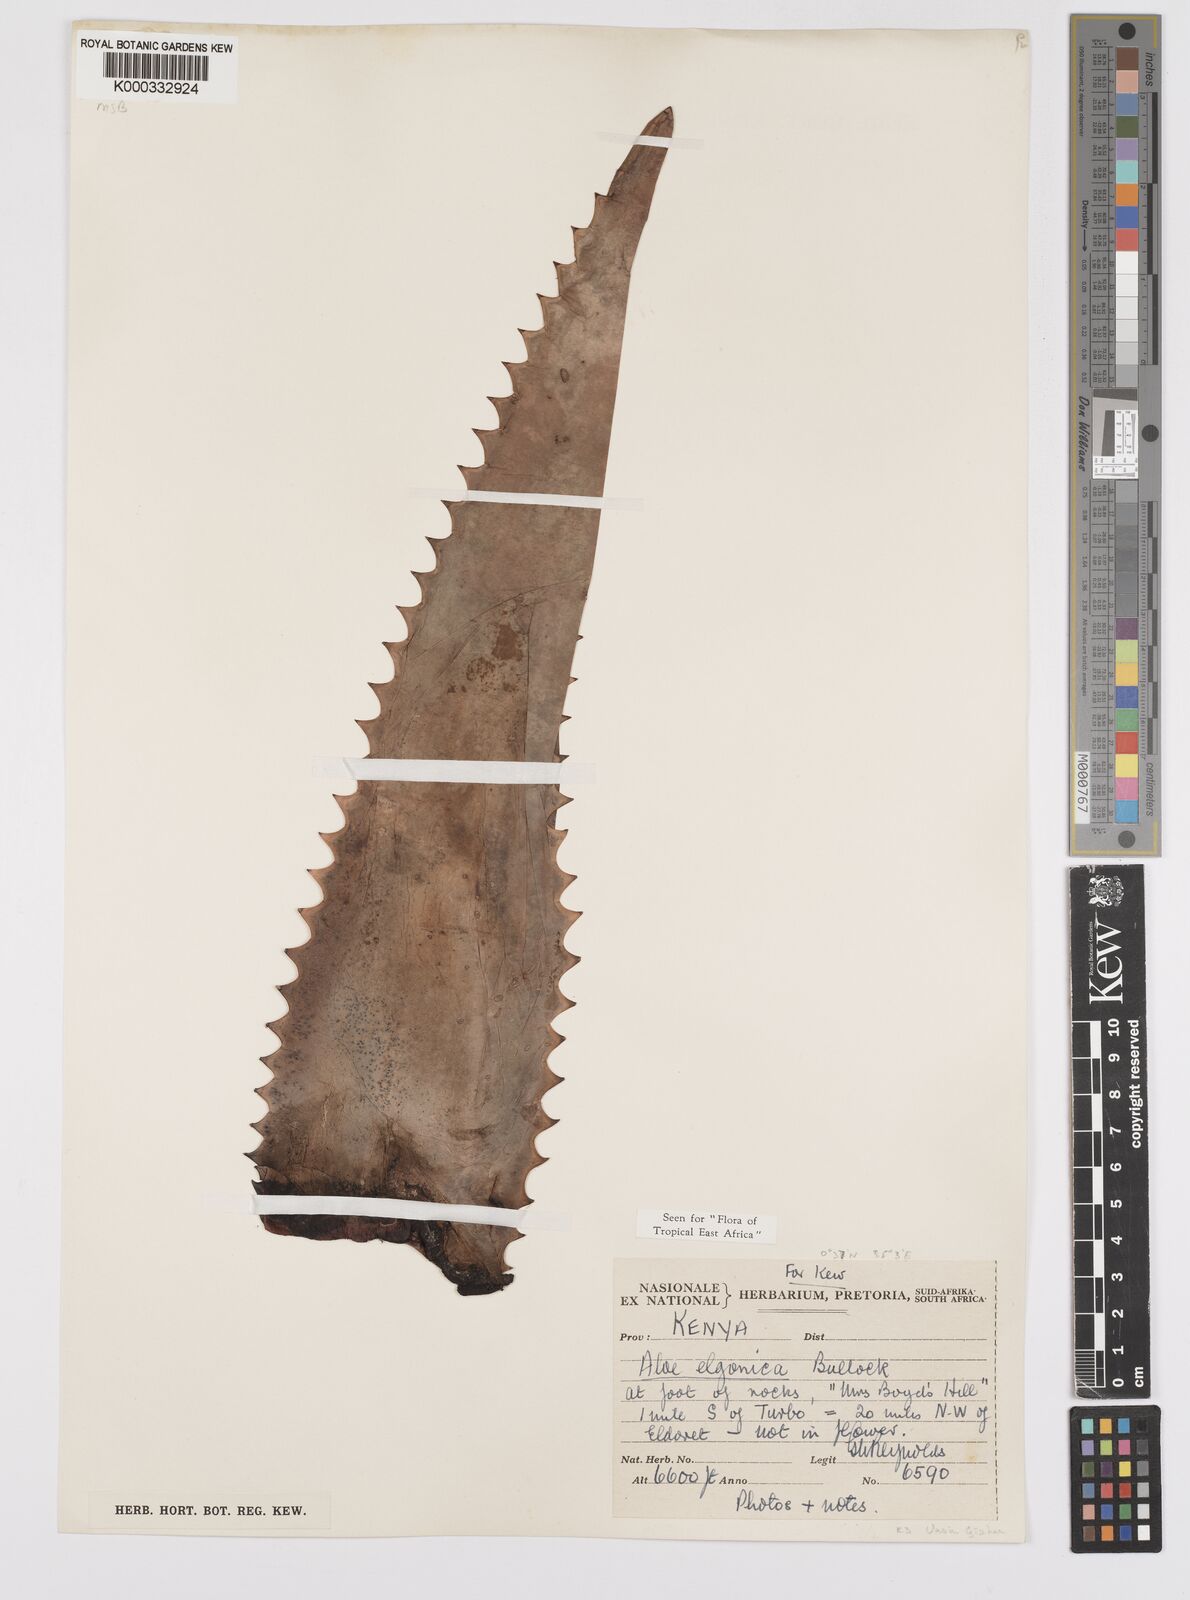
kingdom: Plantae
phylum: Tracheophyta
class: Liliopsida
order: Asparagales
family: Asphodelaceae
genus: Aloe
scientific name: Aloe elgonica
